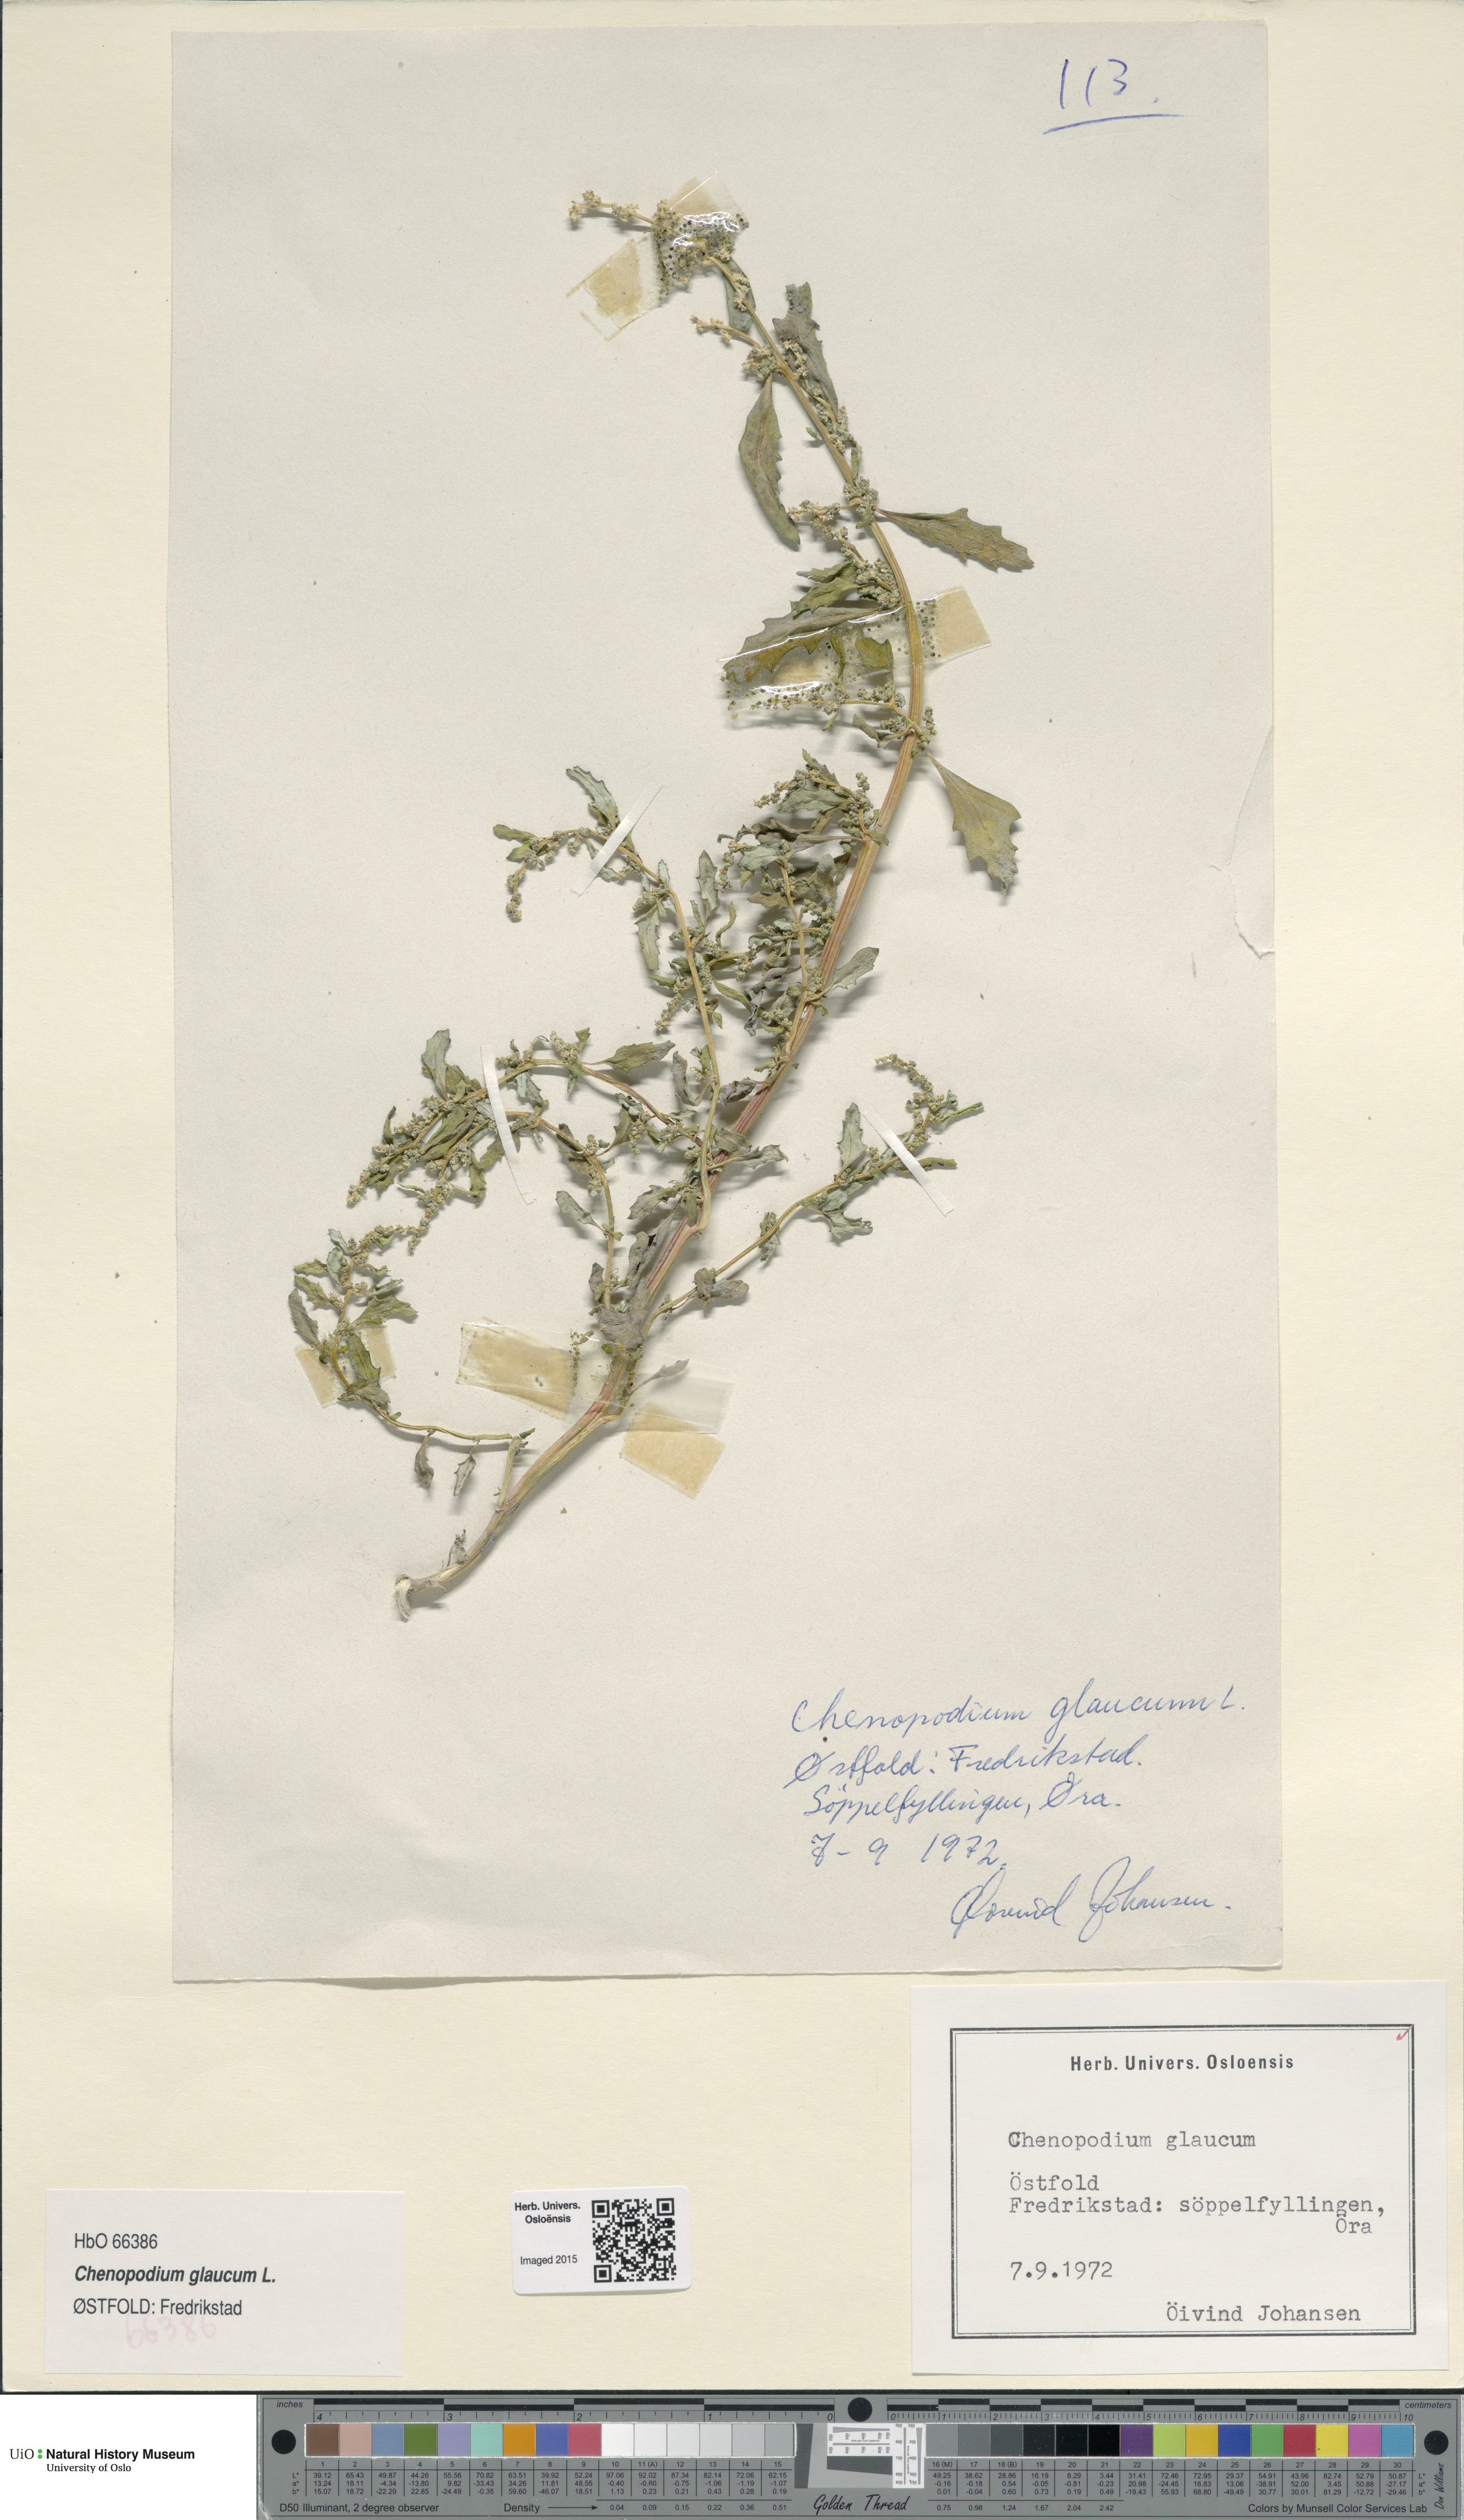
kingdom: Plantae
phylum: Tracheophyta
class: Magnoliopsida
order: Caryophyllales
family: Amaranthaceae
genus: Oxybasis
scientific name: Oxybasis glauca
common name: Glaucous goosefoot
